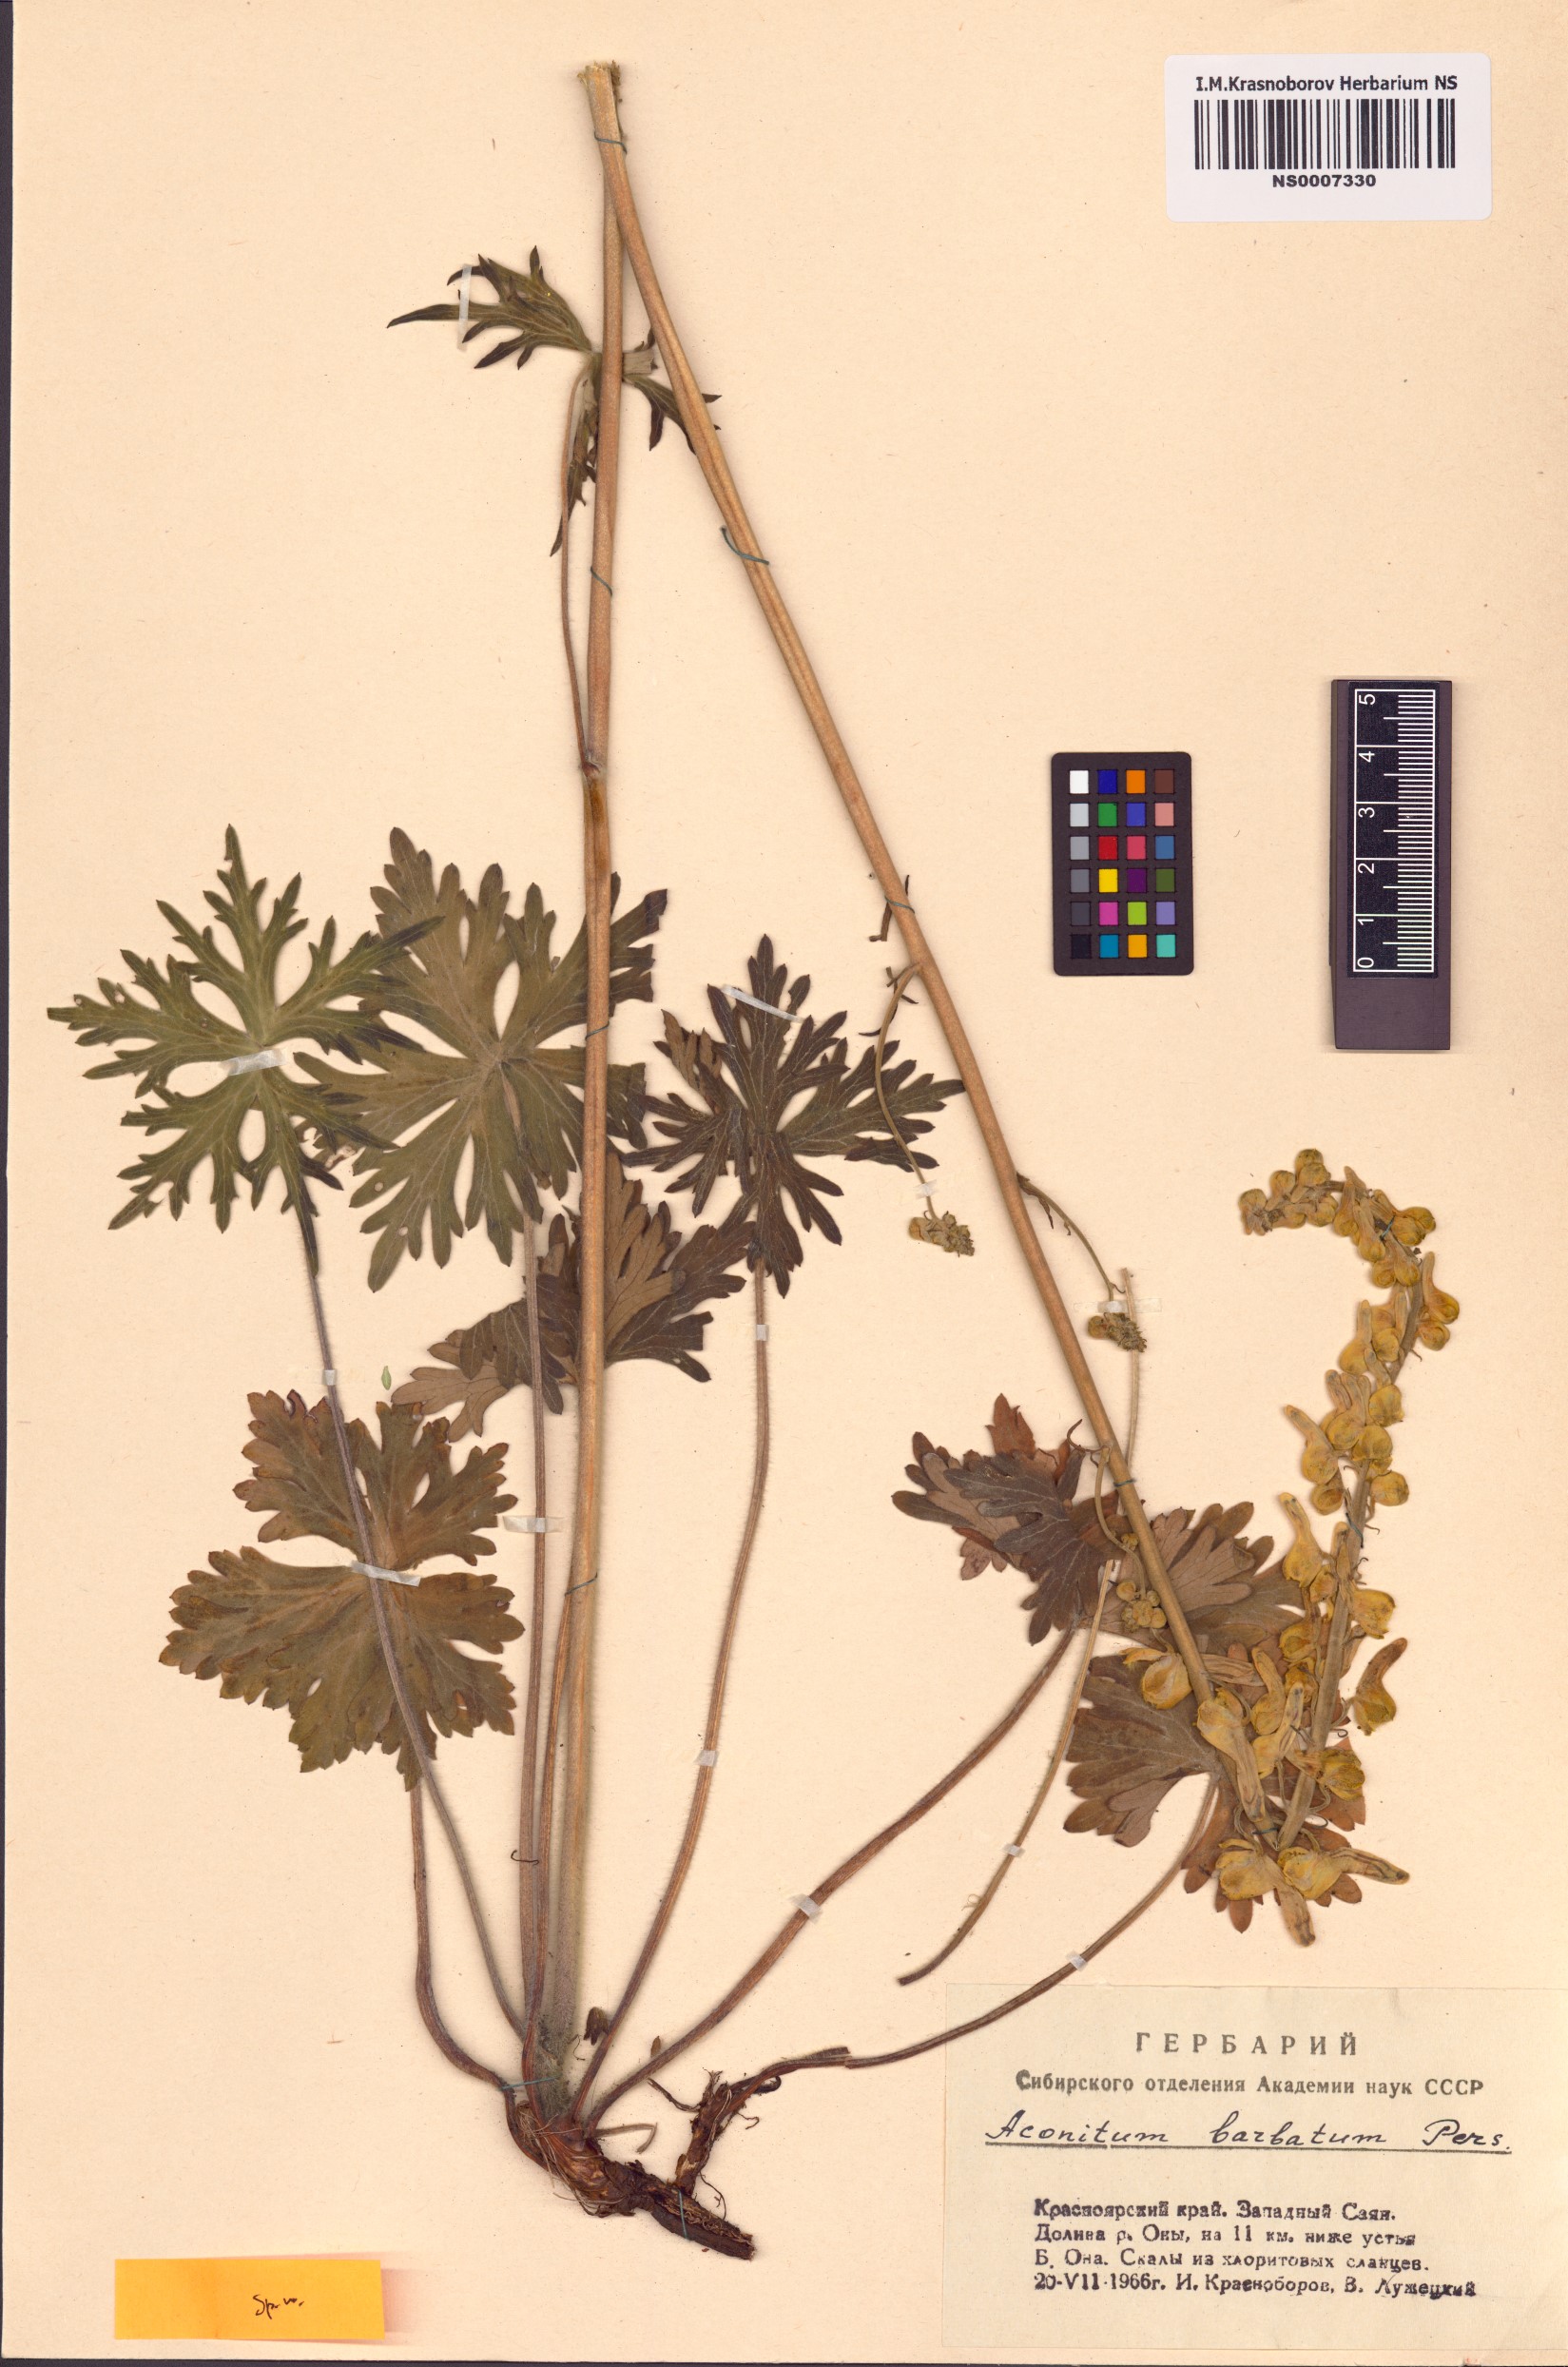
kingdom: Plantae
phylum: Tracheophyta
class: Magnoliopsida
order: Ranunculales
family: Ranunculaceae
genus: Aconitum
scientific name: Aconitum barbatum
